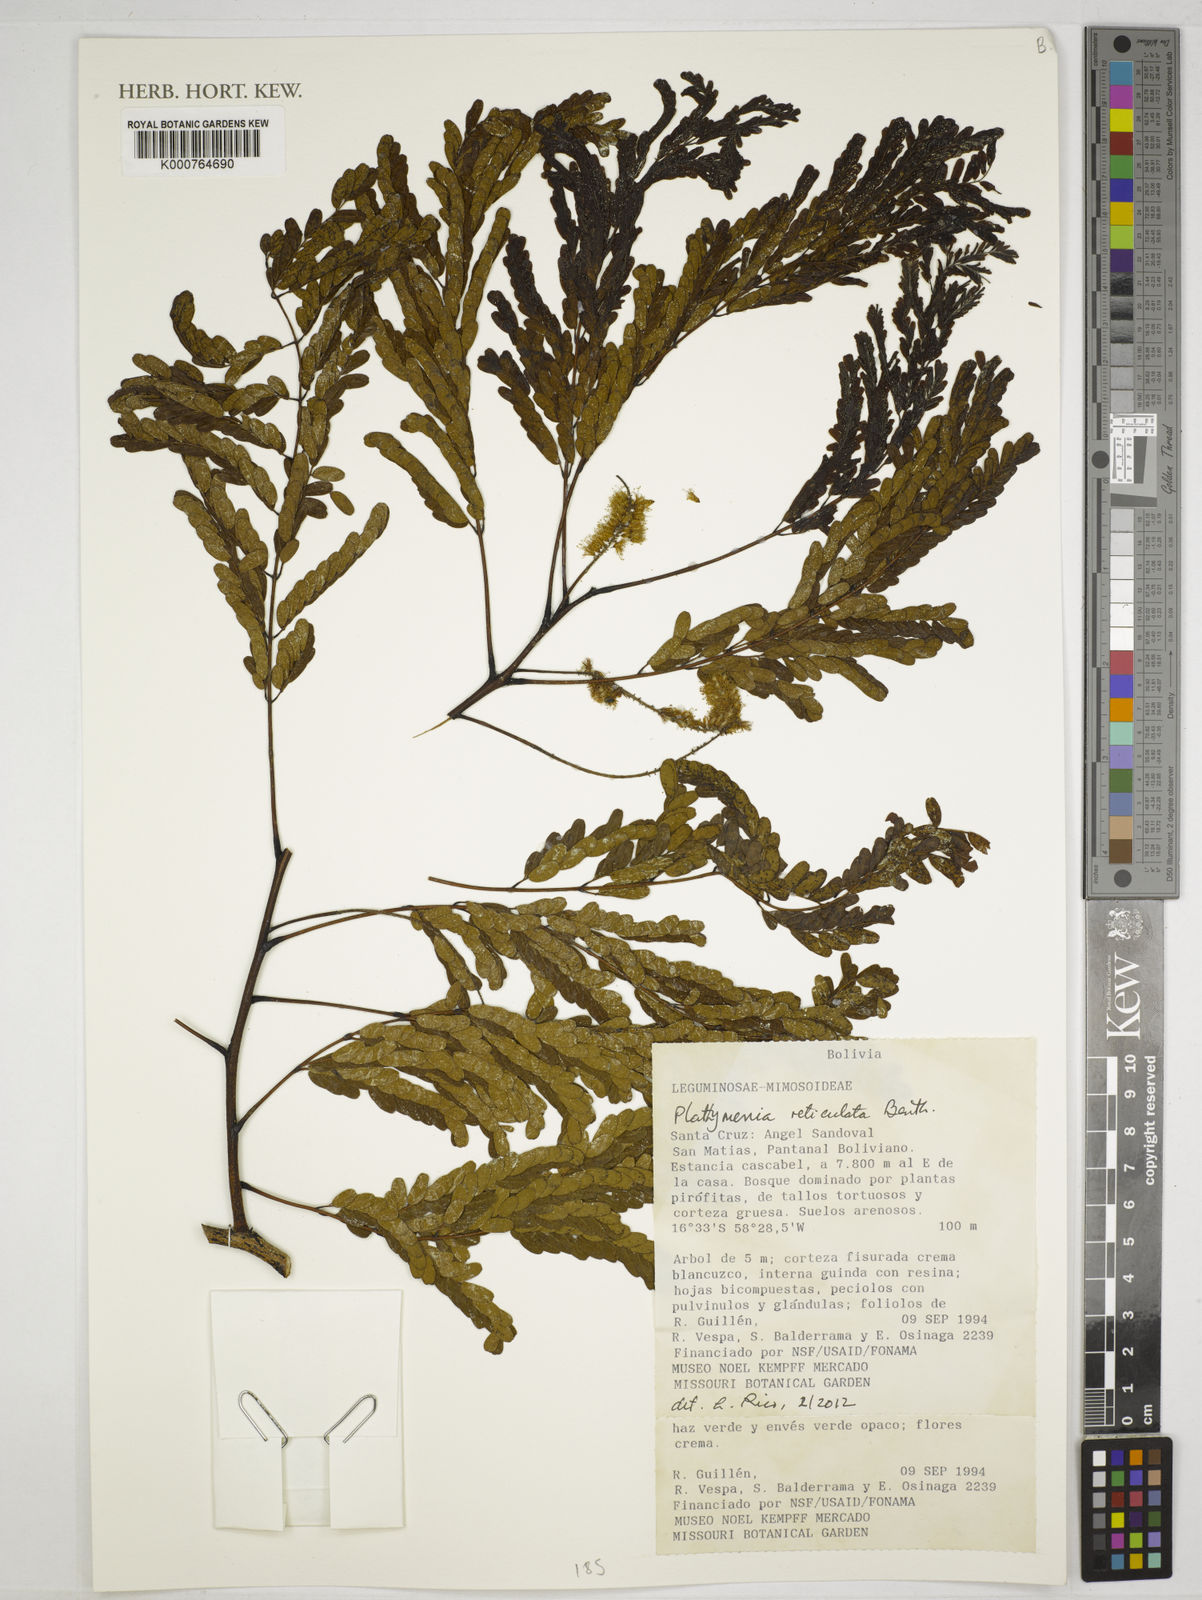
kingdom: Plantae
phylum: Tracheophyta
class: Magnoliopsida
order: Fabales
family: Fabaceae
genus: Plathymenia
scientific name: Plathymenia reticulata
